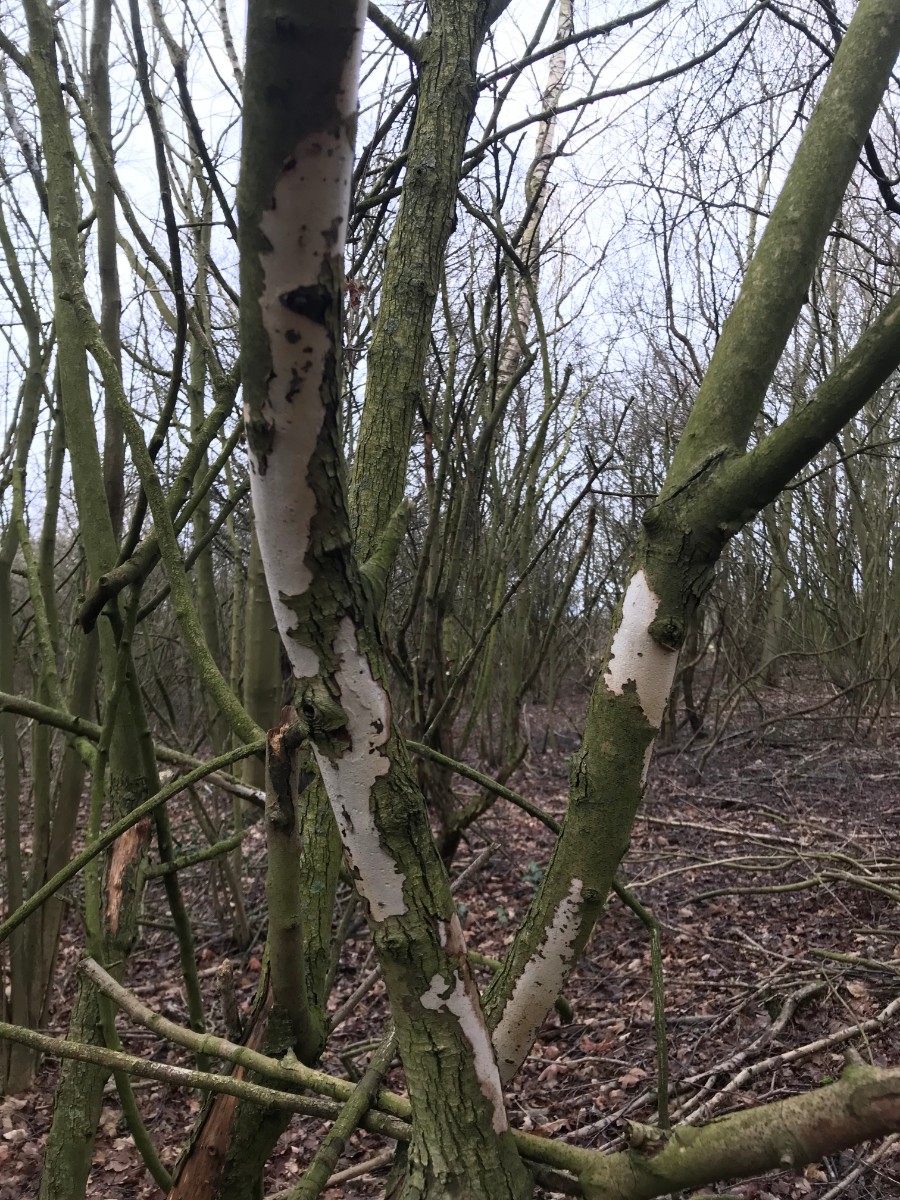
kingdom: Fungi
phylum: Basidiomycota
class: Agaricomycetes
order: Corticiales
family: Vuilleminiaceae
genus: Vuilleminia
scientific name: Vuilleminia cystidiata
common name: tjørne-barksprænger
